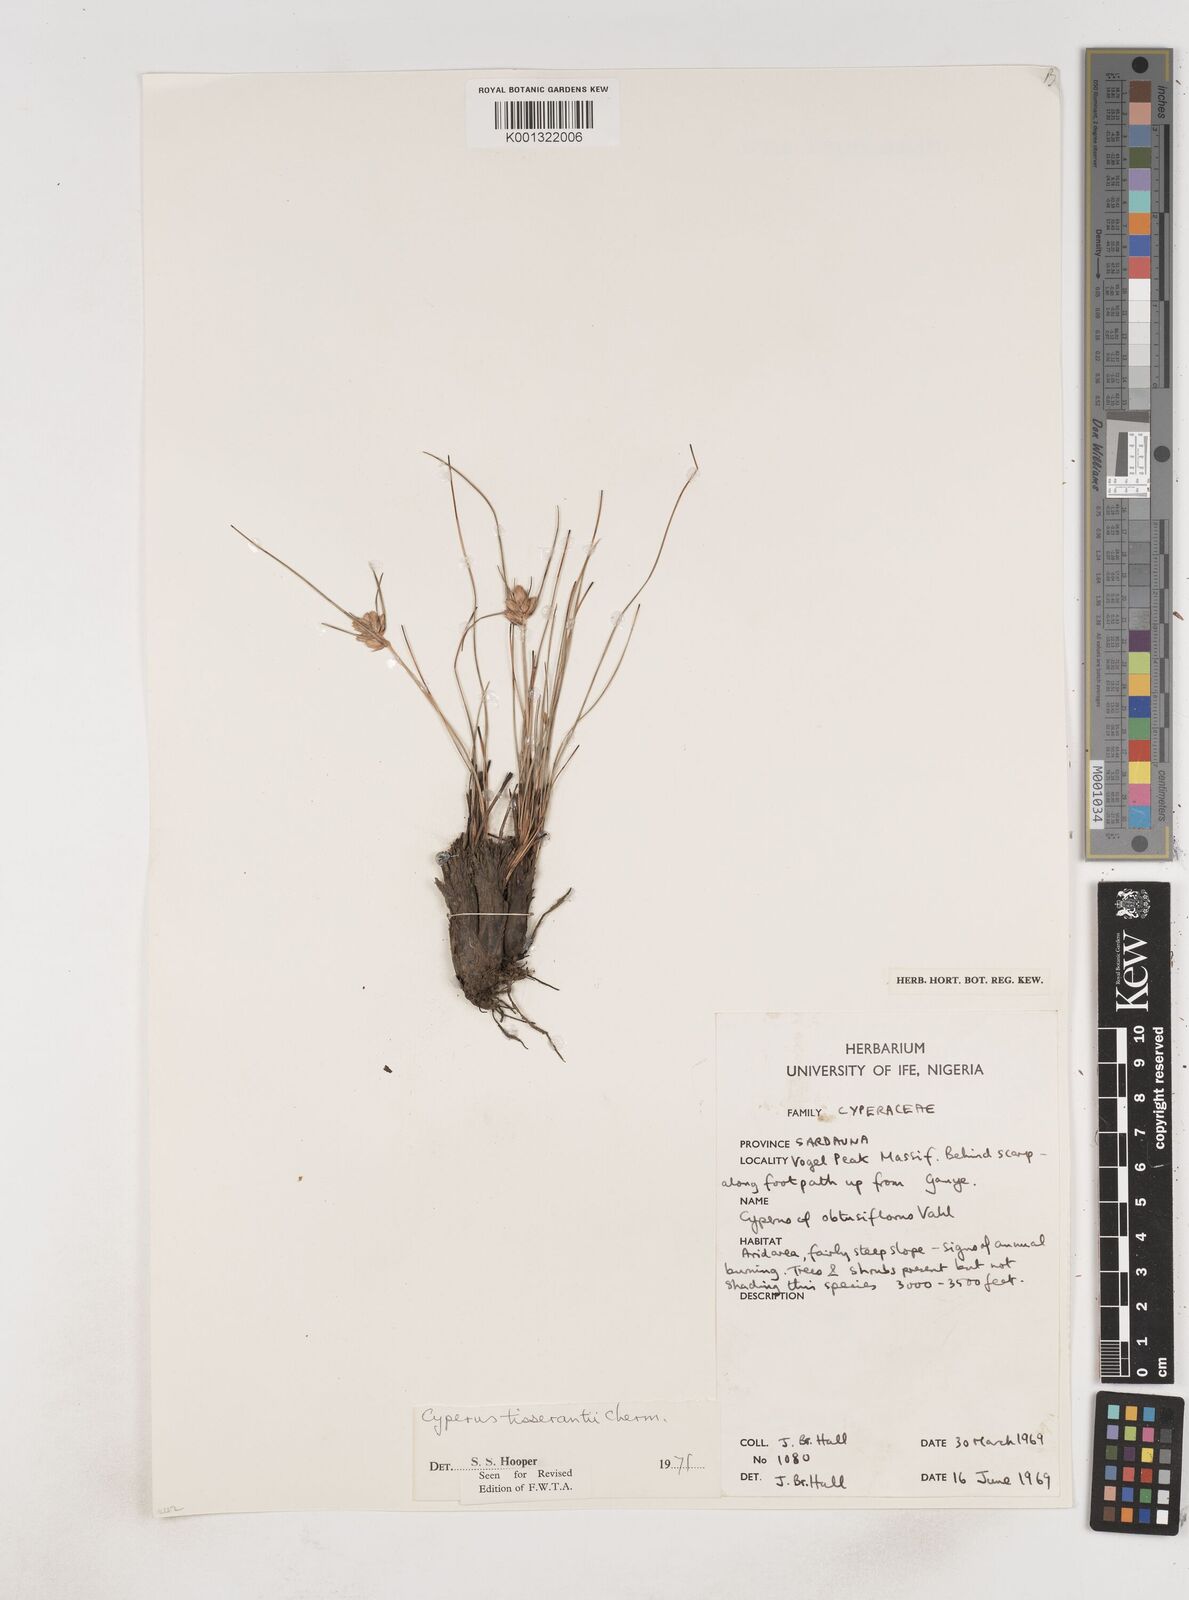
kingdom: Plantae
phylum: Tracheophyta
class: Liliopsida
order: Poales
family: Cyperaceae
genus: Cyperus
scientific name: Cyperus niveus
